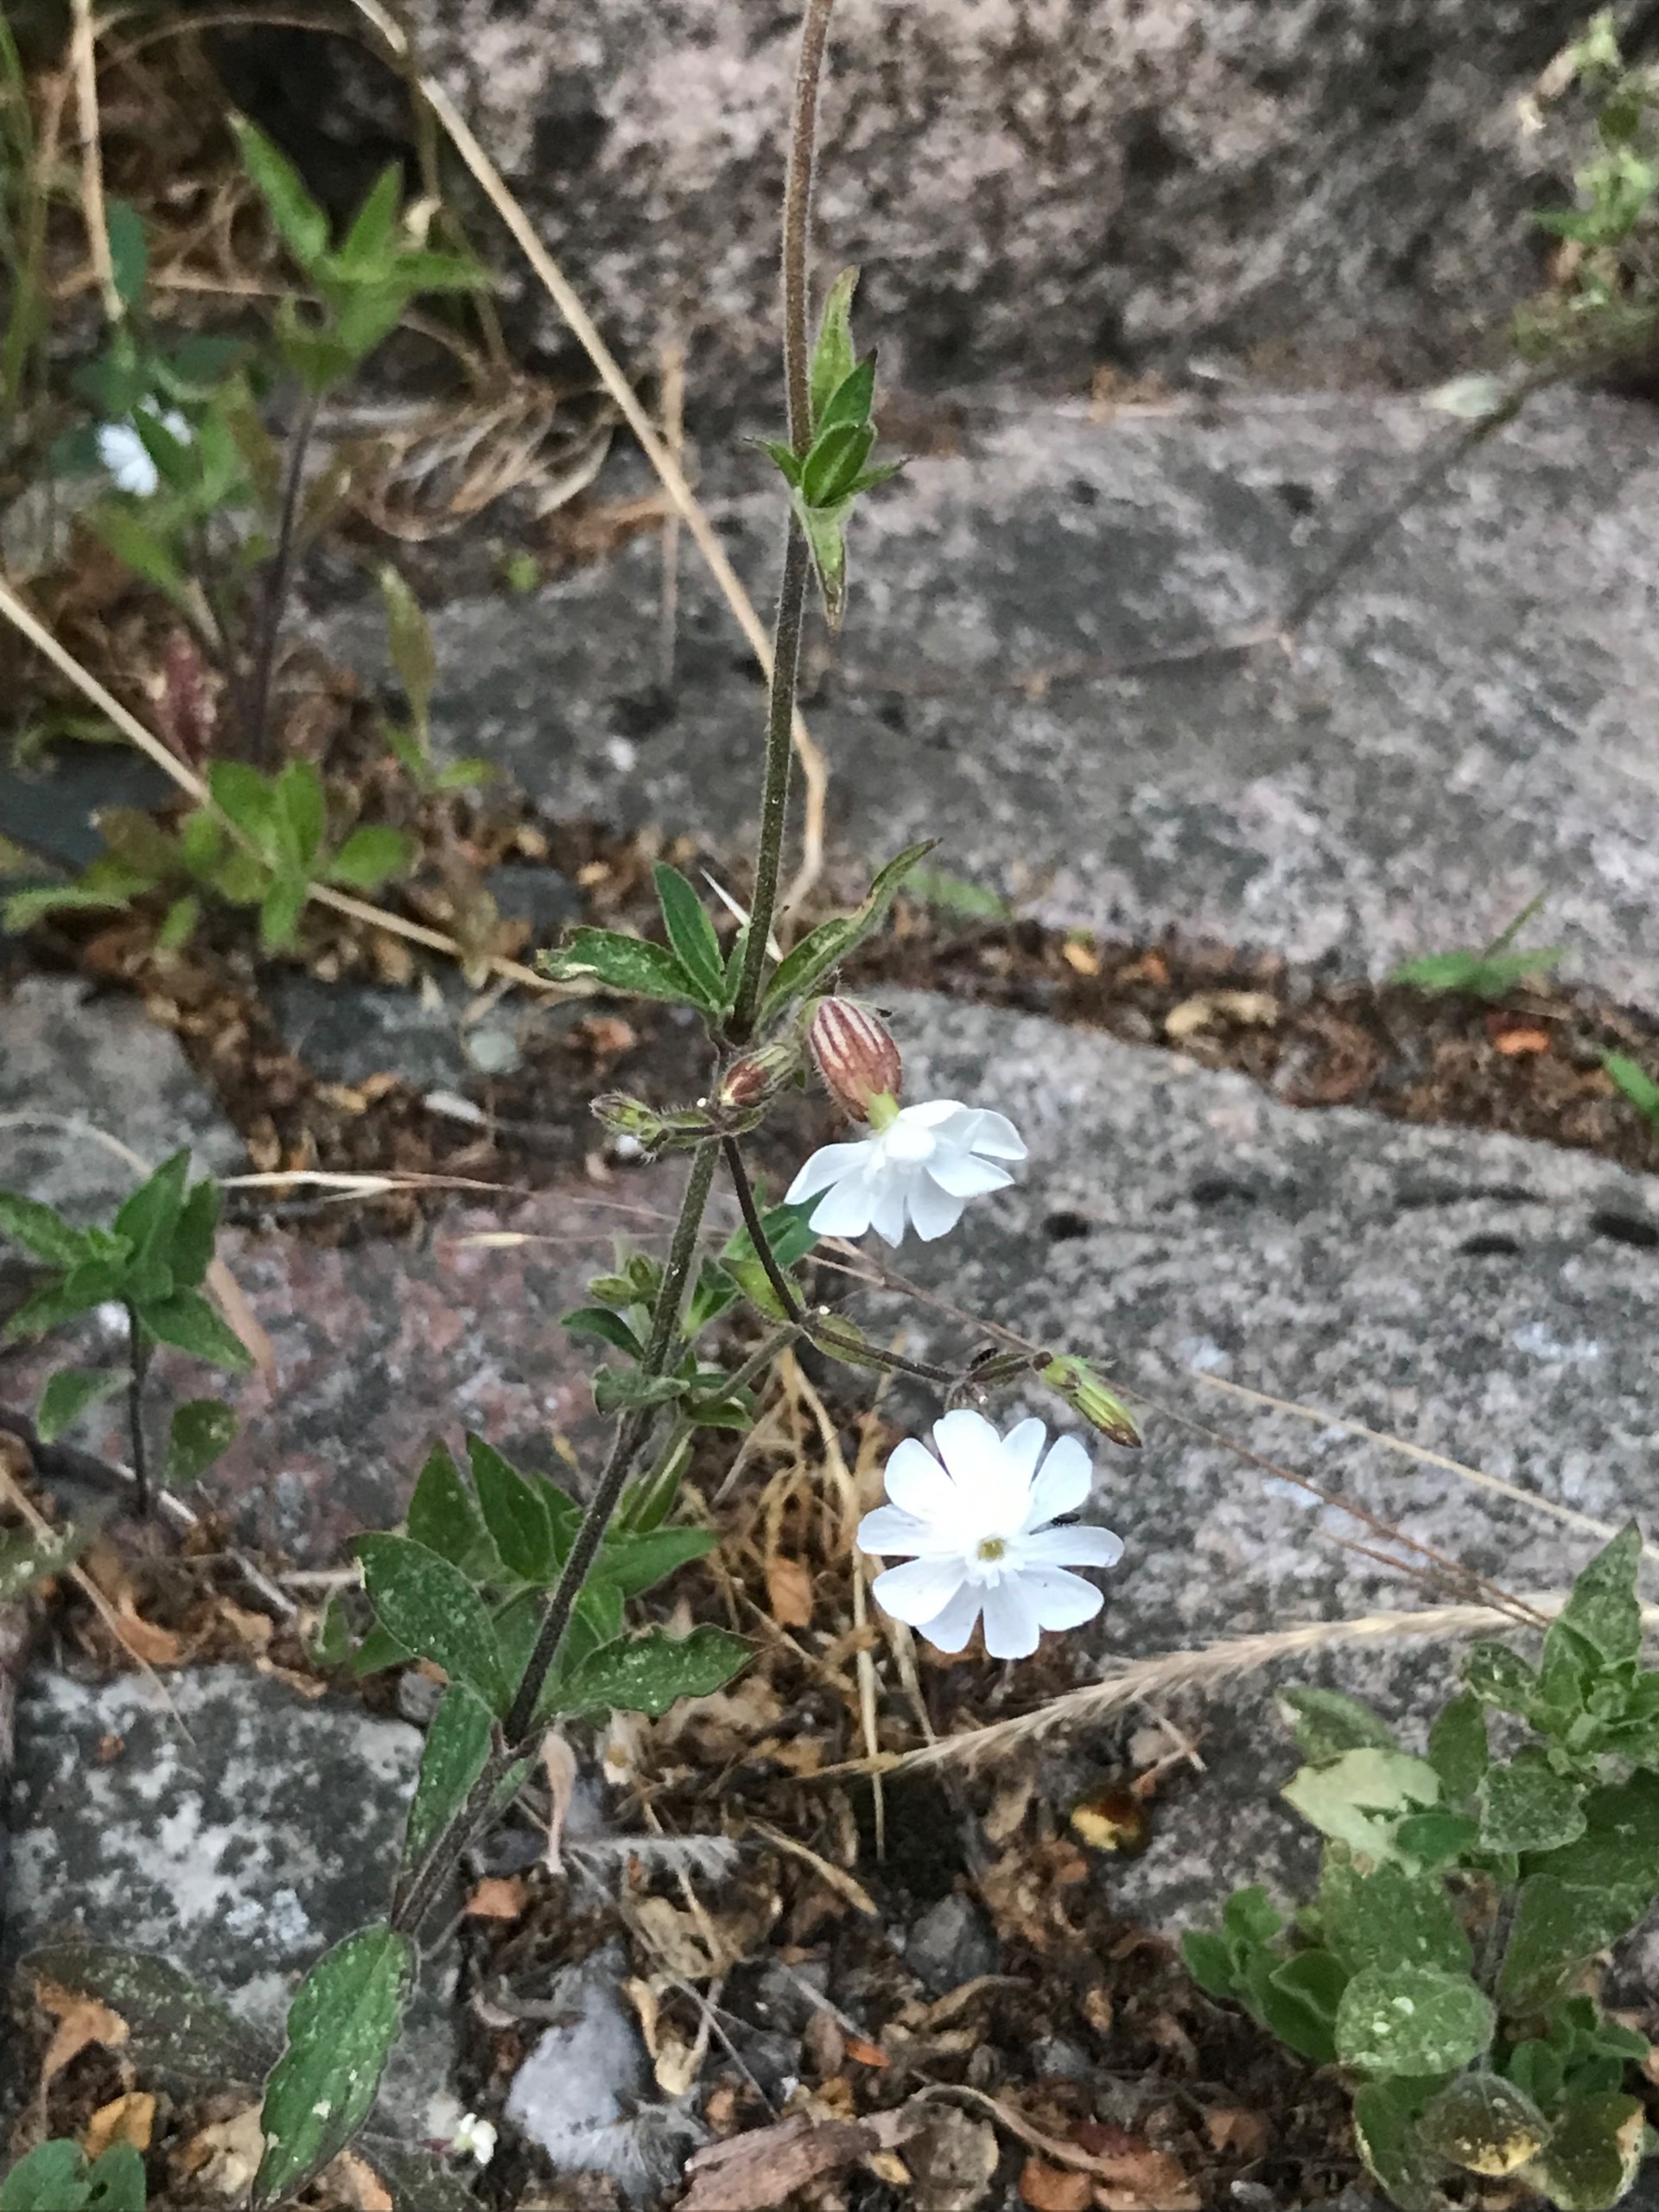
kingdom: Plantae
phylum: Tracheophyta
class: Magnoliopsida
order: Caryophyllales
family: Caryophyllaceae
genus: Silene
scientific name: Silene latifolia
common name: Aftenpragtstjerne
